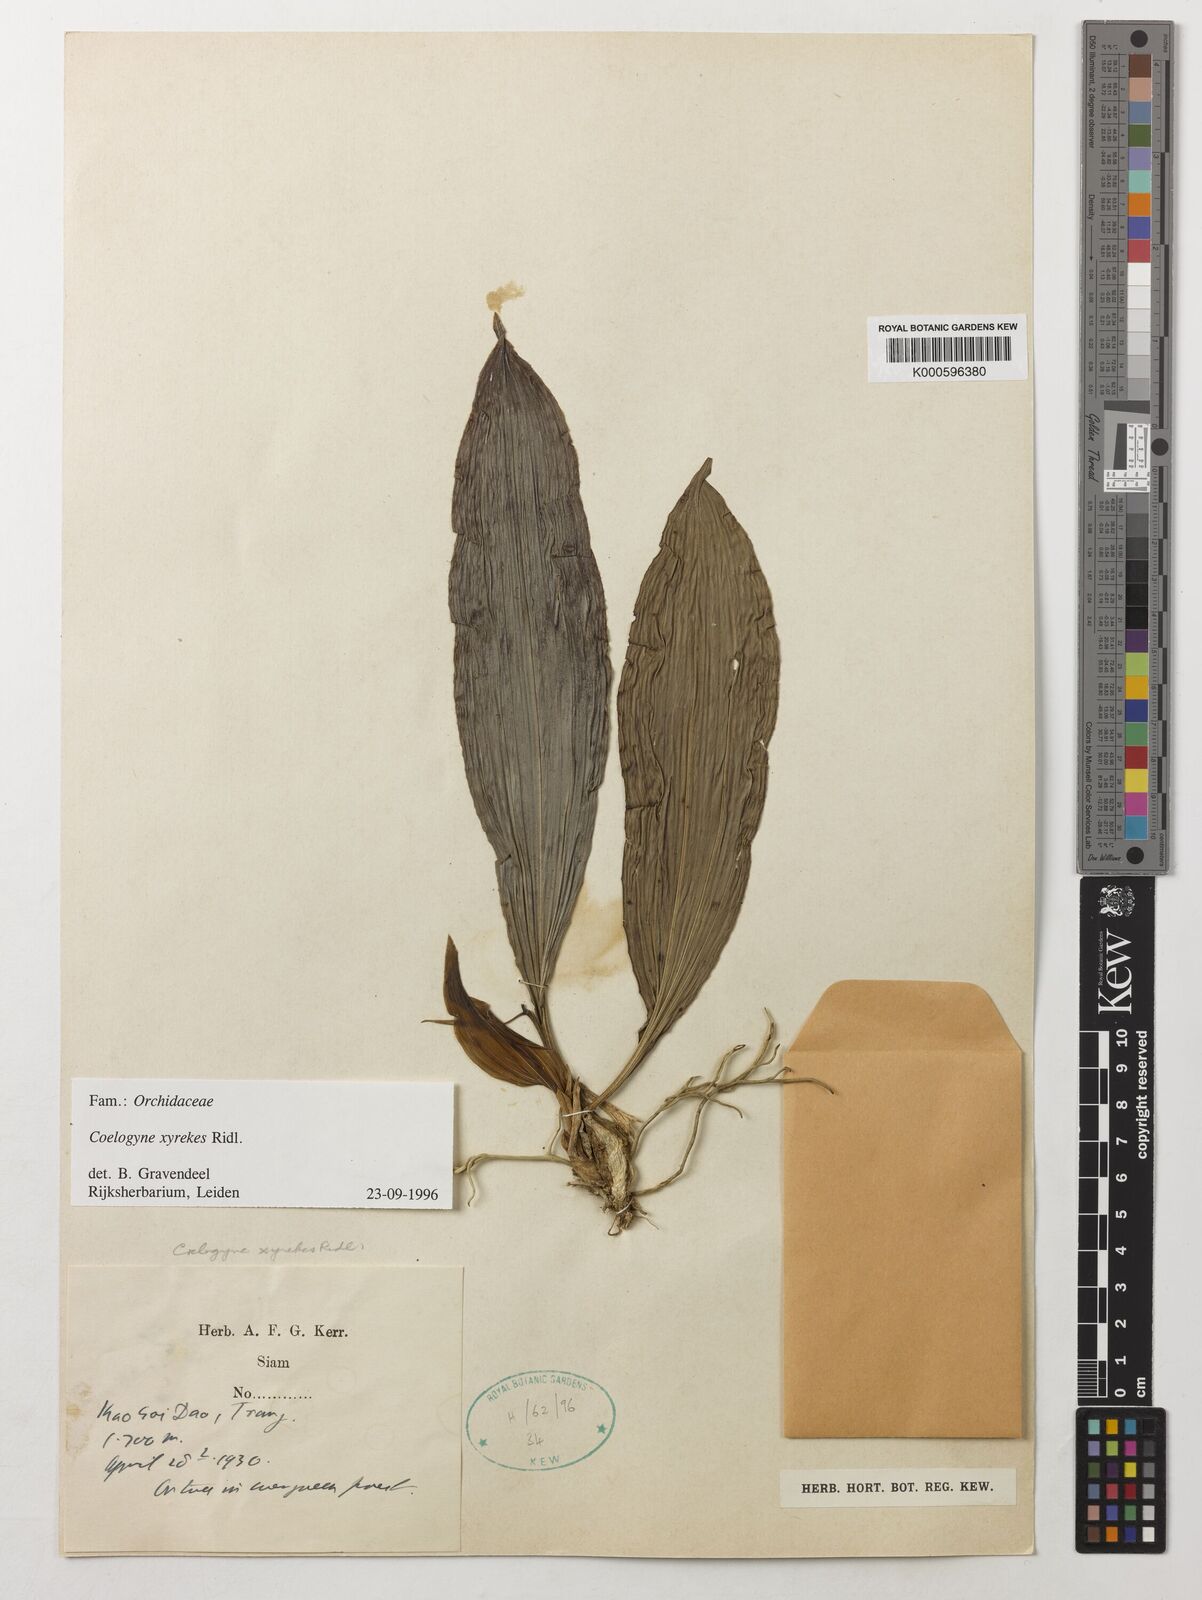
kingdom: Plantae
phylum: Tracheophyta
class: Liliopsida
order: Asparagales
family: Orchidaceae
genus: Coelogyne
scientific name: Coelogyne xyrekes
